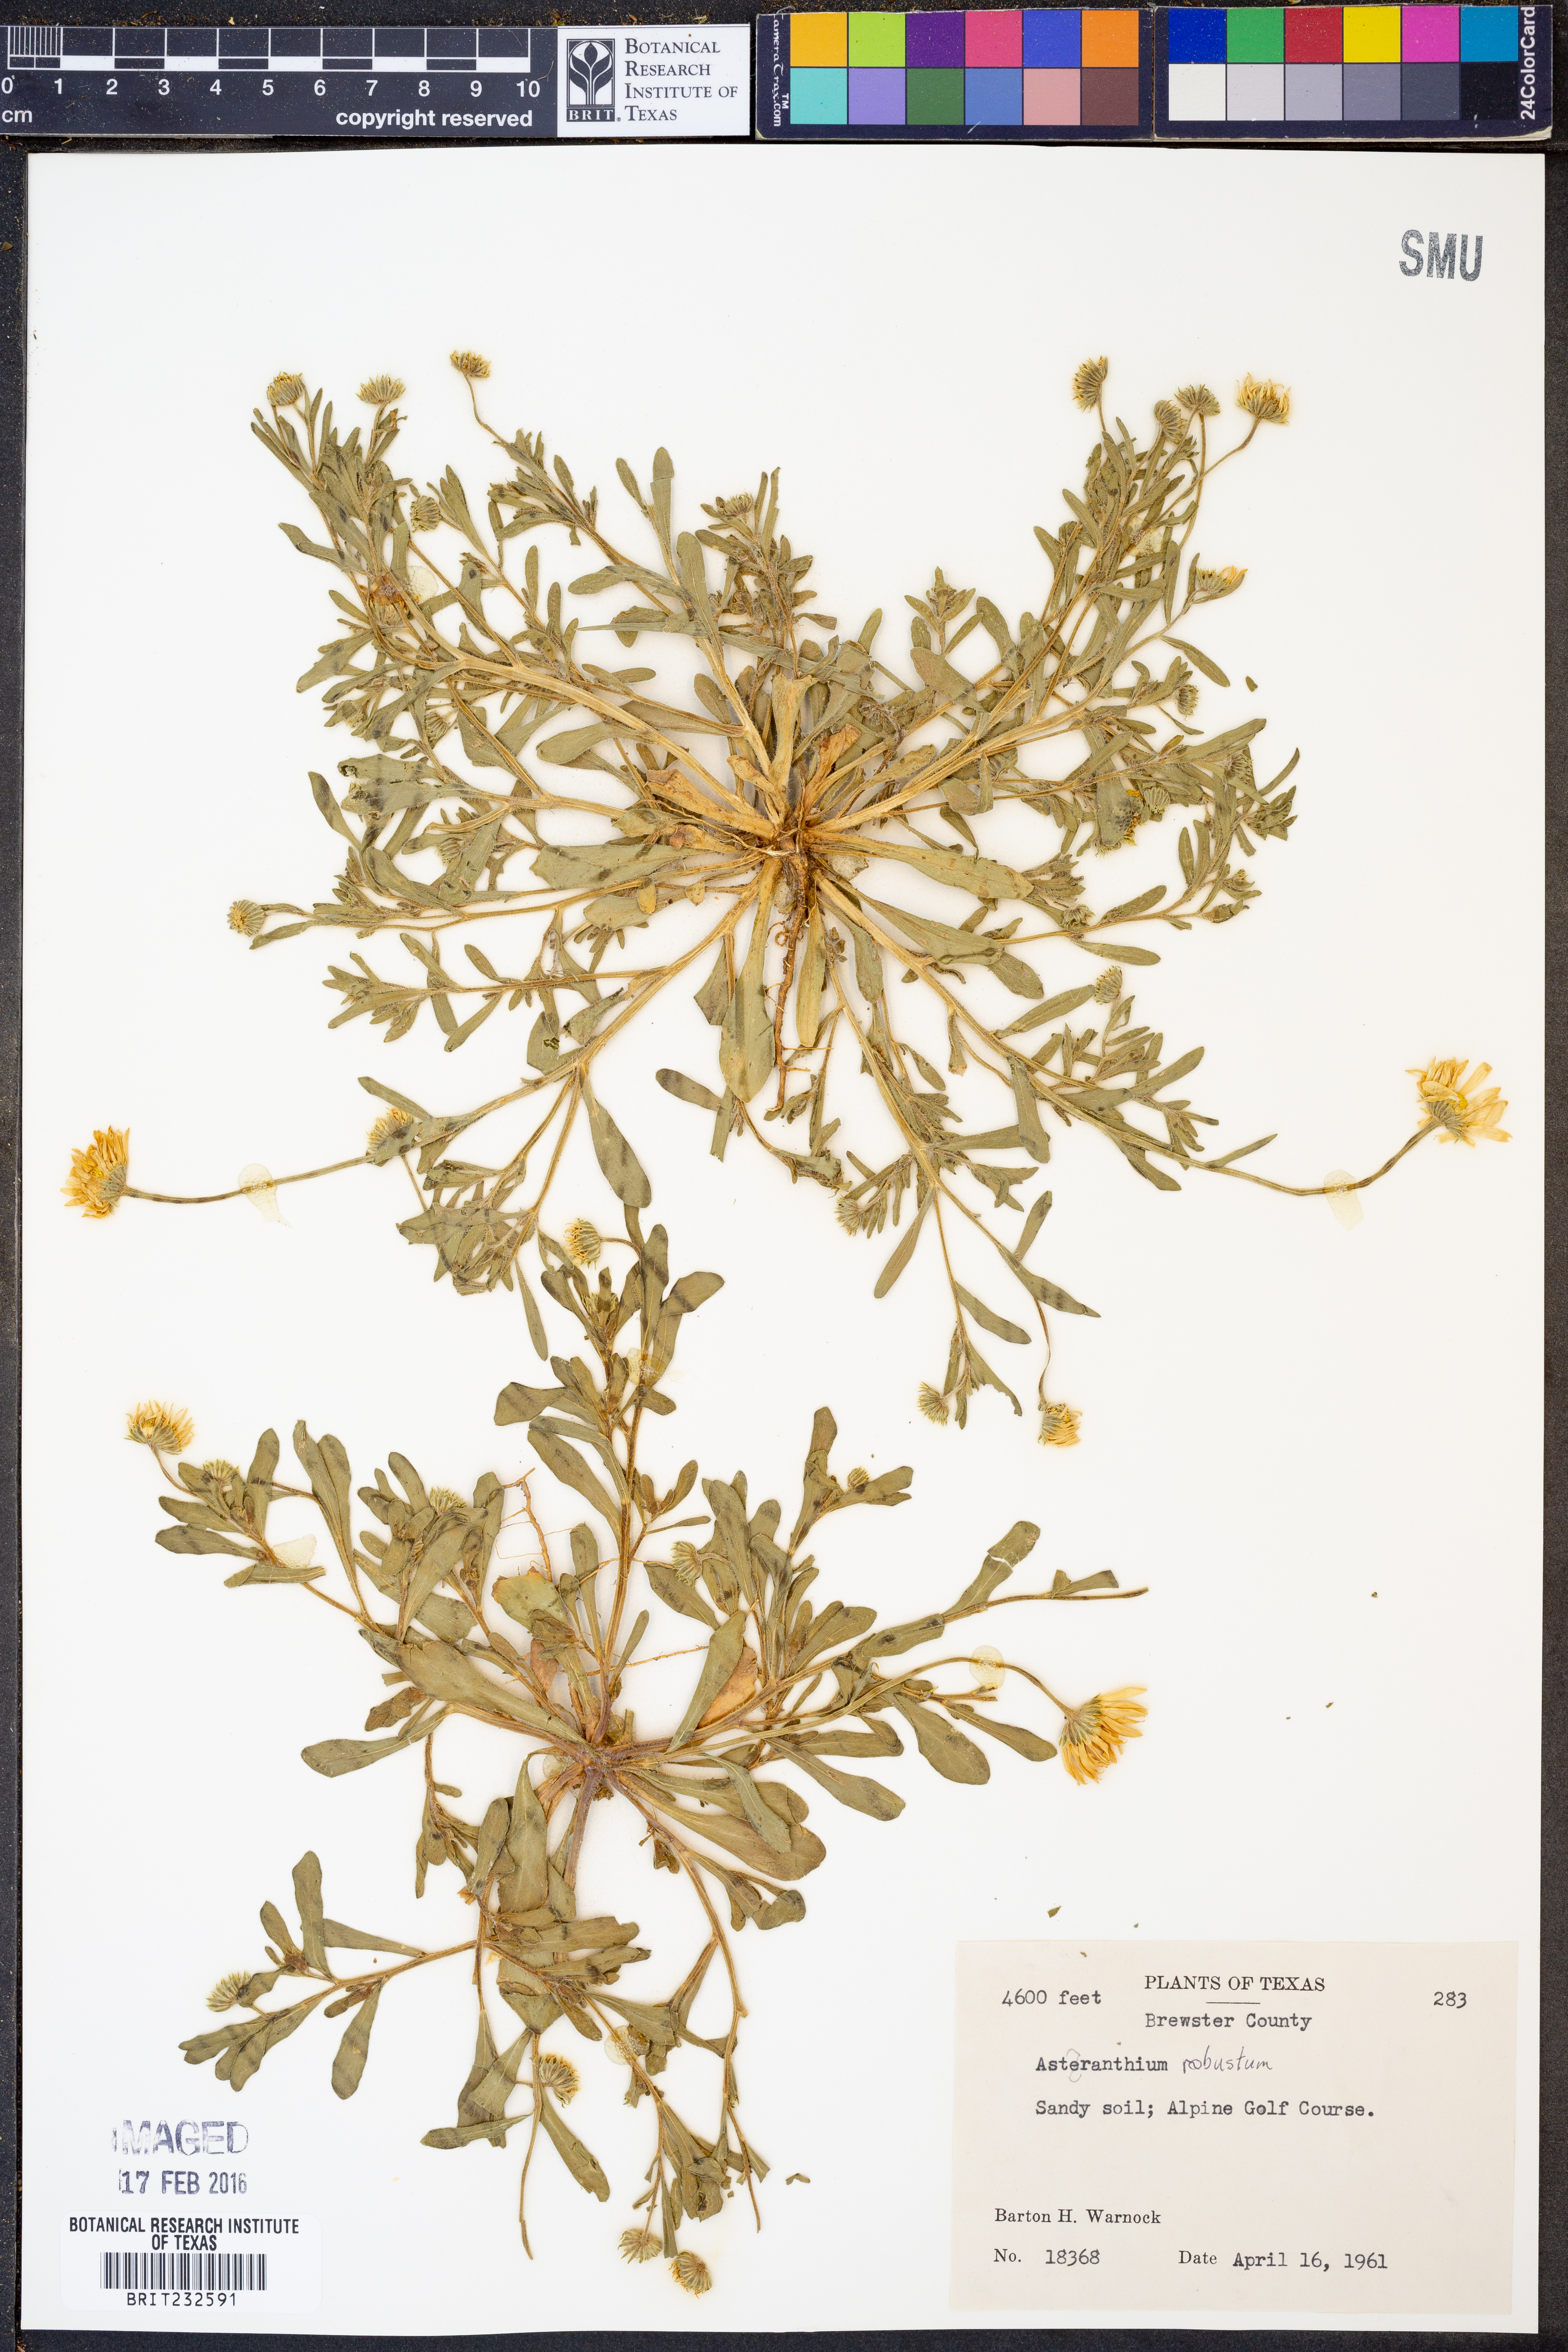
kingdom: Plantae
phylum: Tracheophyta
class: Magnoliopsida
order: Asterales
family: Asteraceae
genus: Astranthium
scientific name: Astranthium robustum
